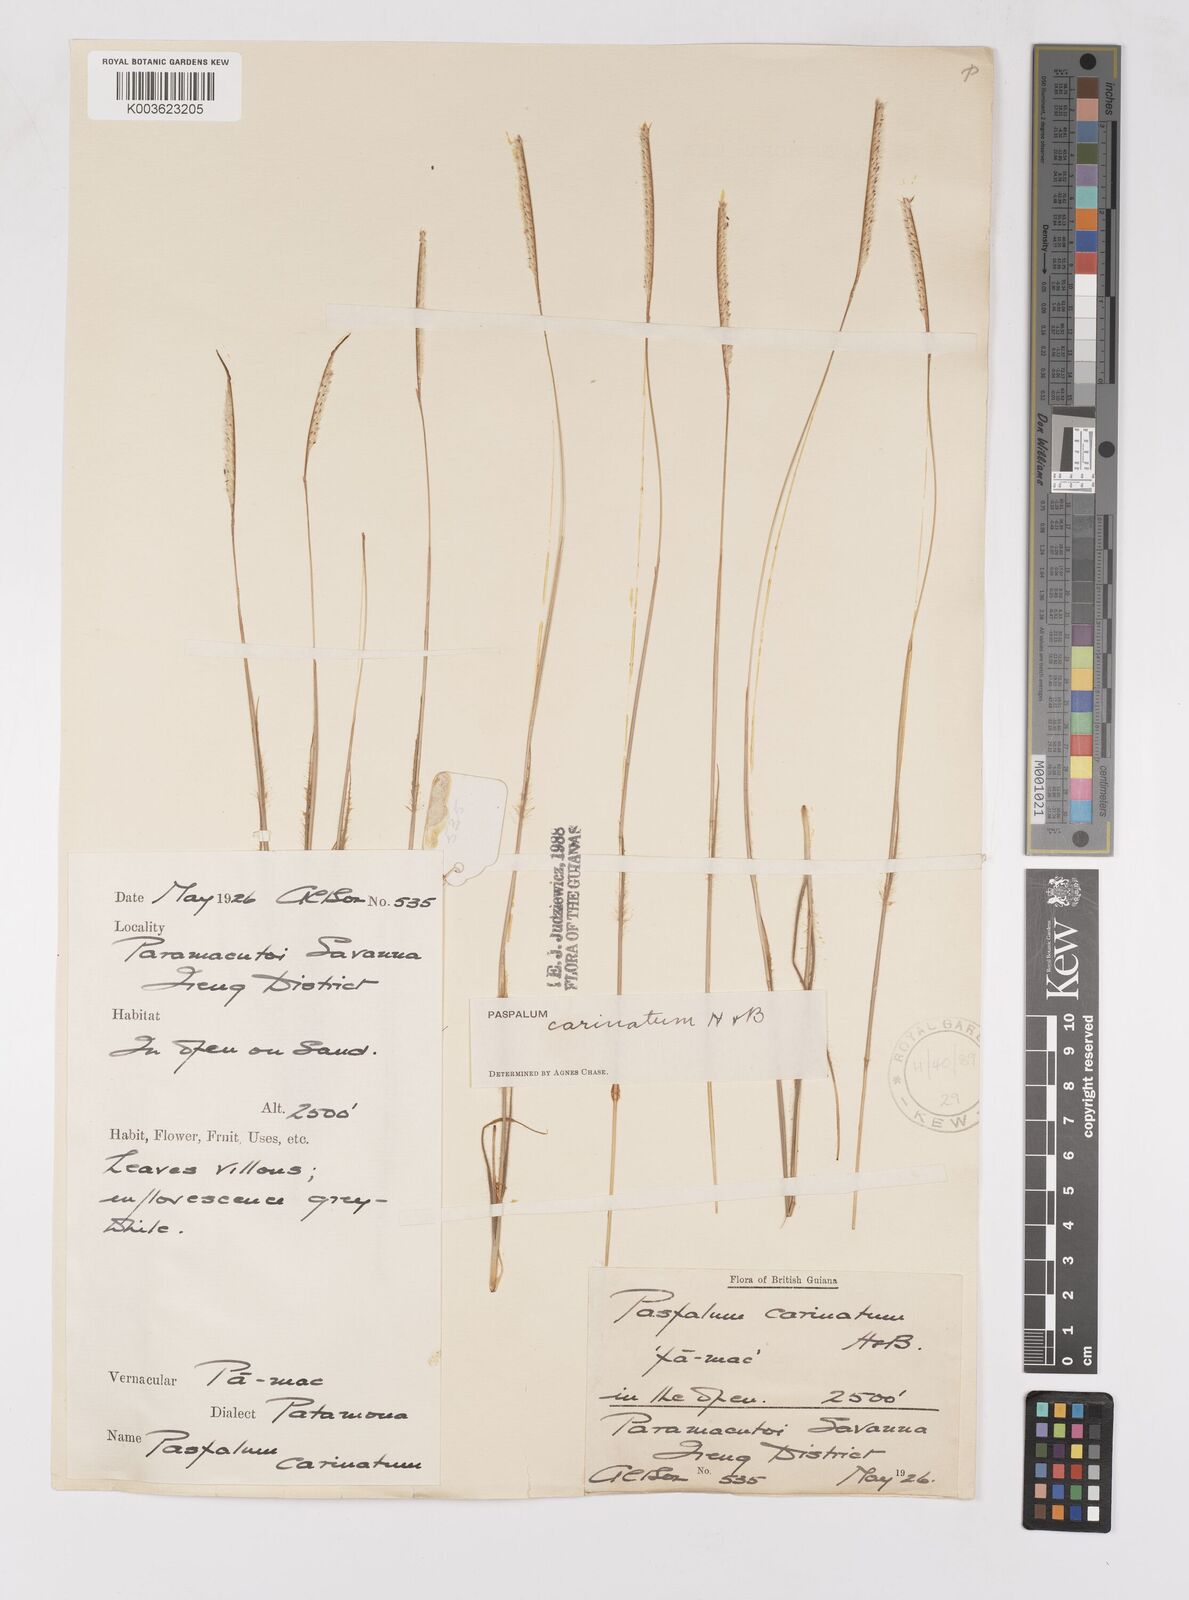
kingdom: Plantae
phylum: Tracheophyta
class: Liliopsida
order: Poales
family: Poaceae
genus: Paspalum
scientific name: Paspalum carinatum
